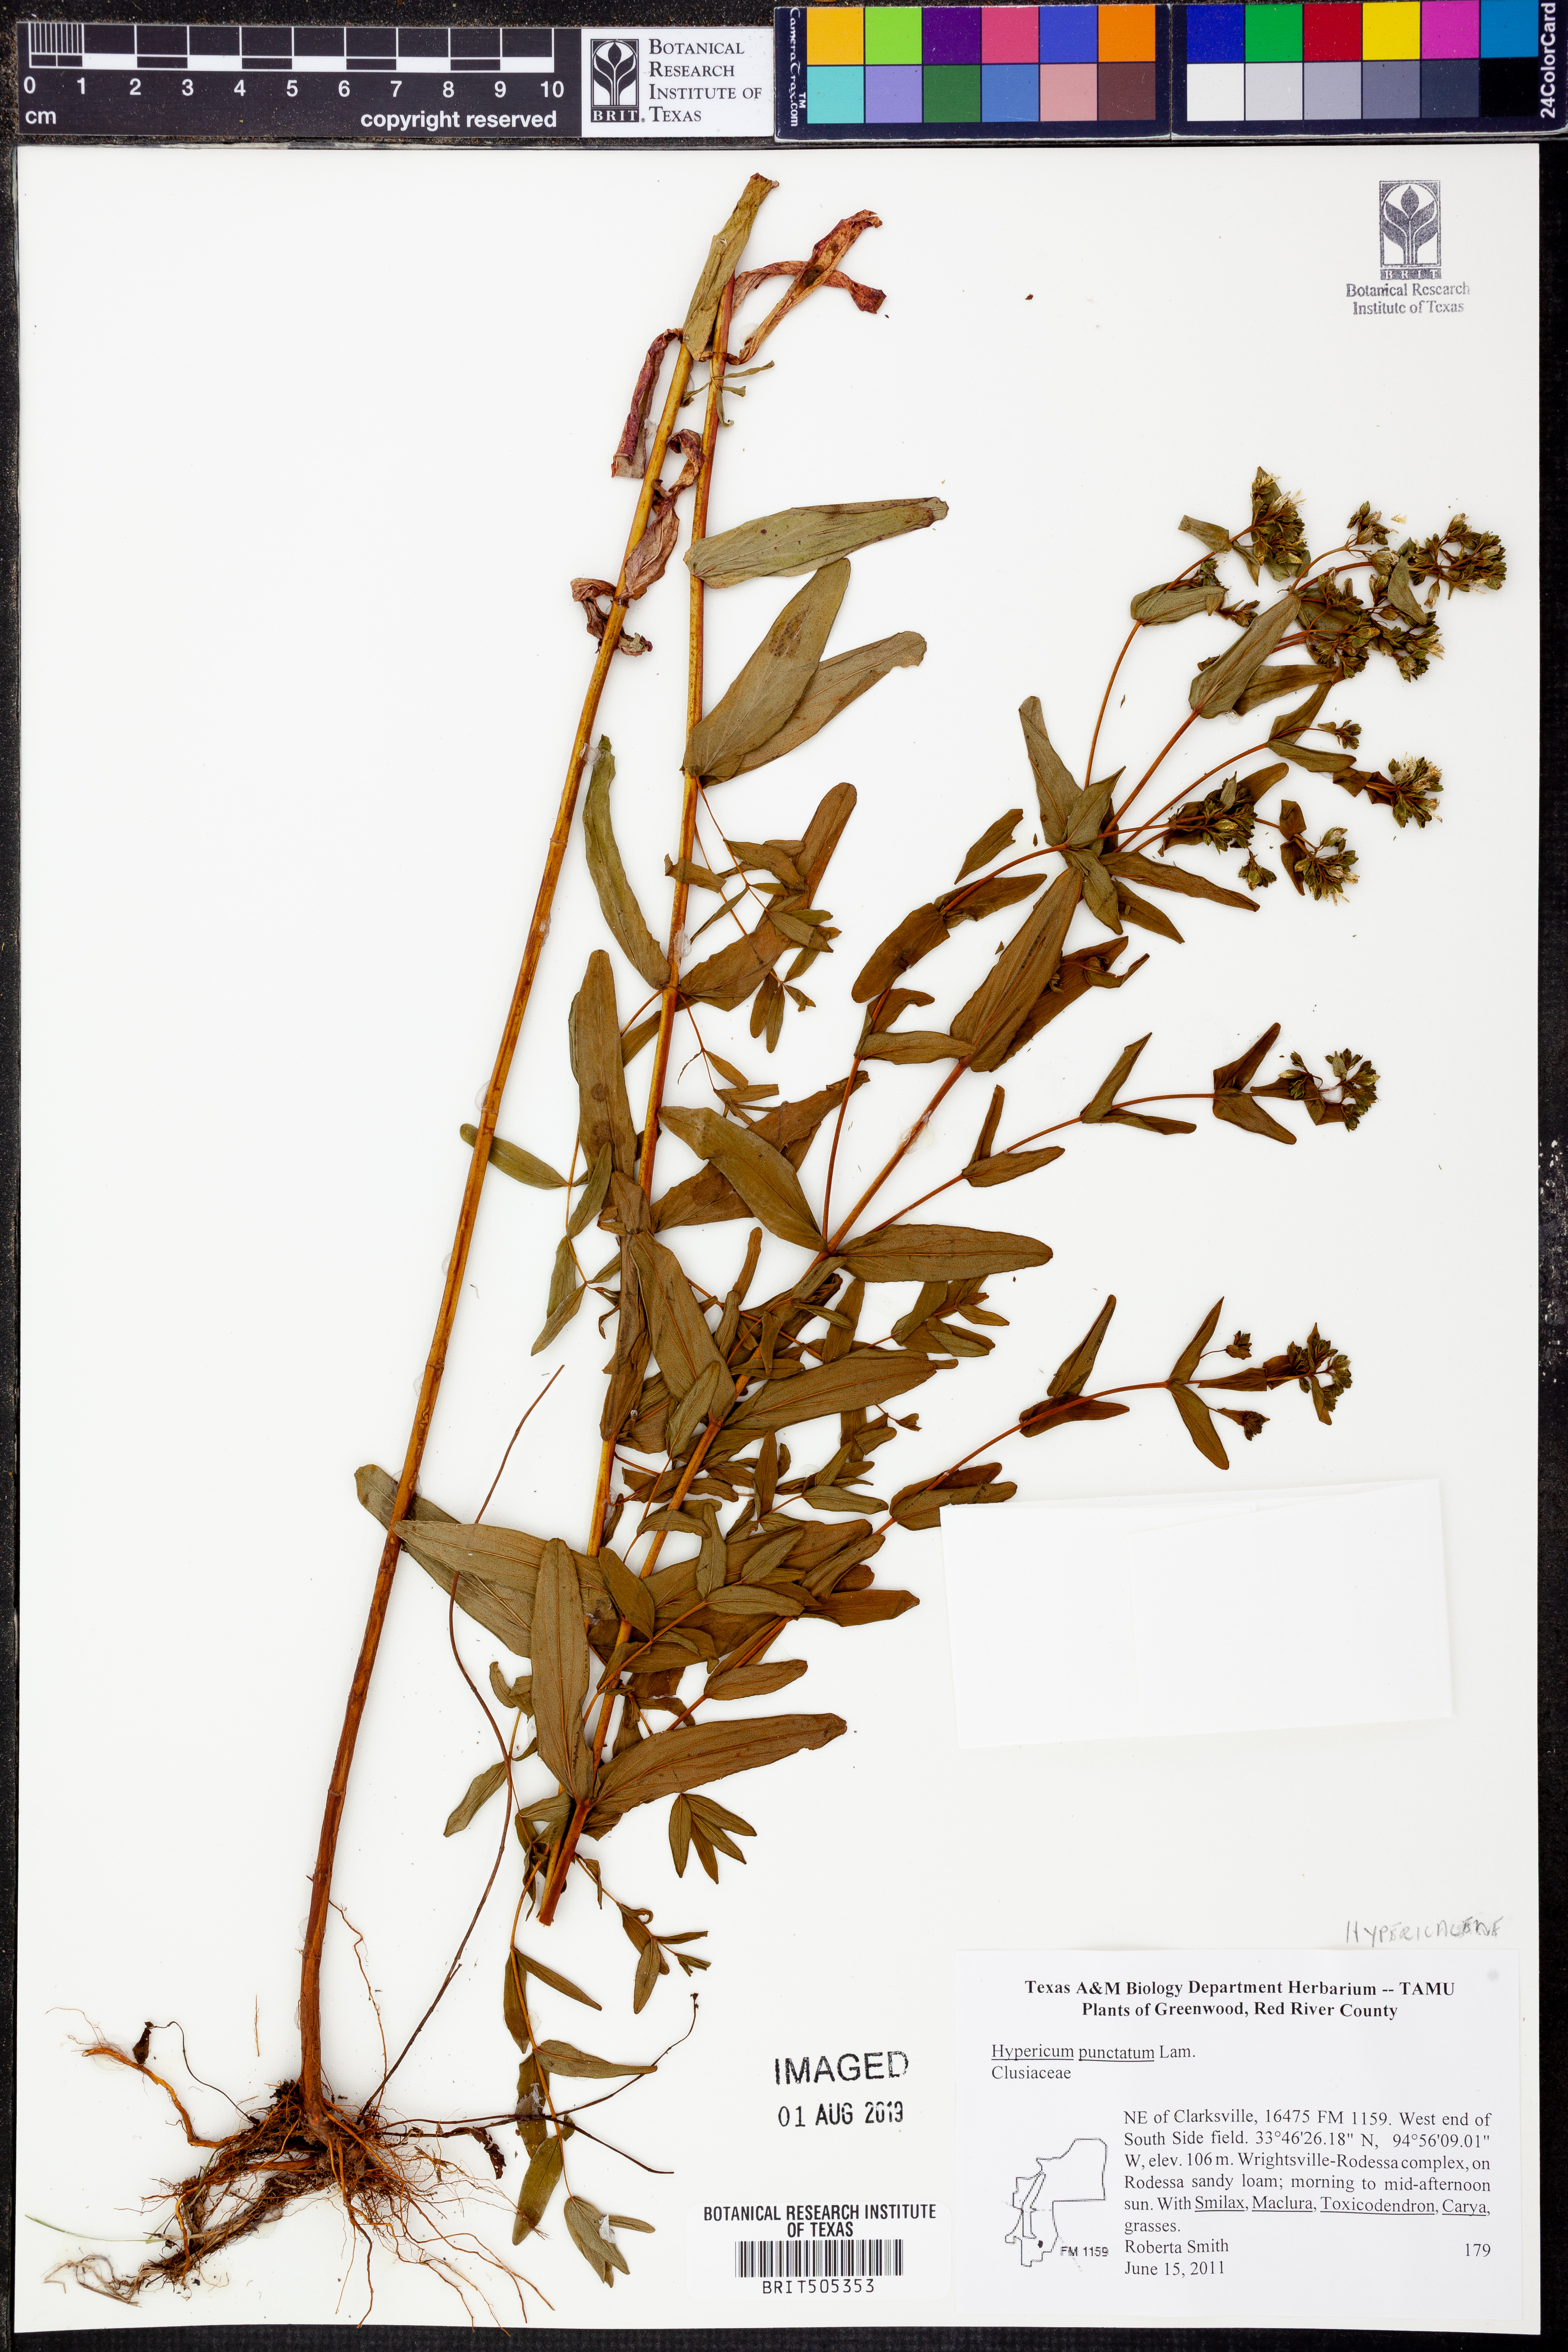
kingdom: Plantae
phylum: Tracheophyta
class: Magnoliopsida
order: Malpighiales
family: Hypericaceae
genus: Hypericum
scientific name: Hypericum punctatum
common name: Spotted st. john's-wort
